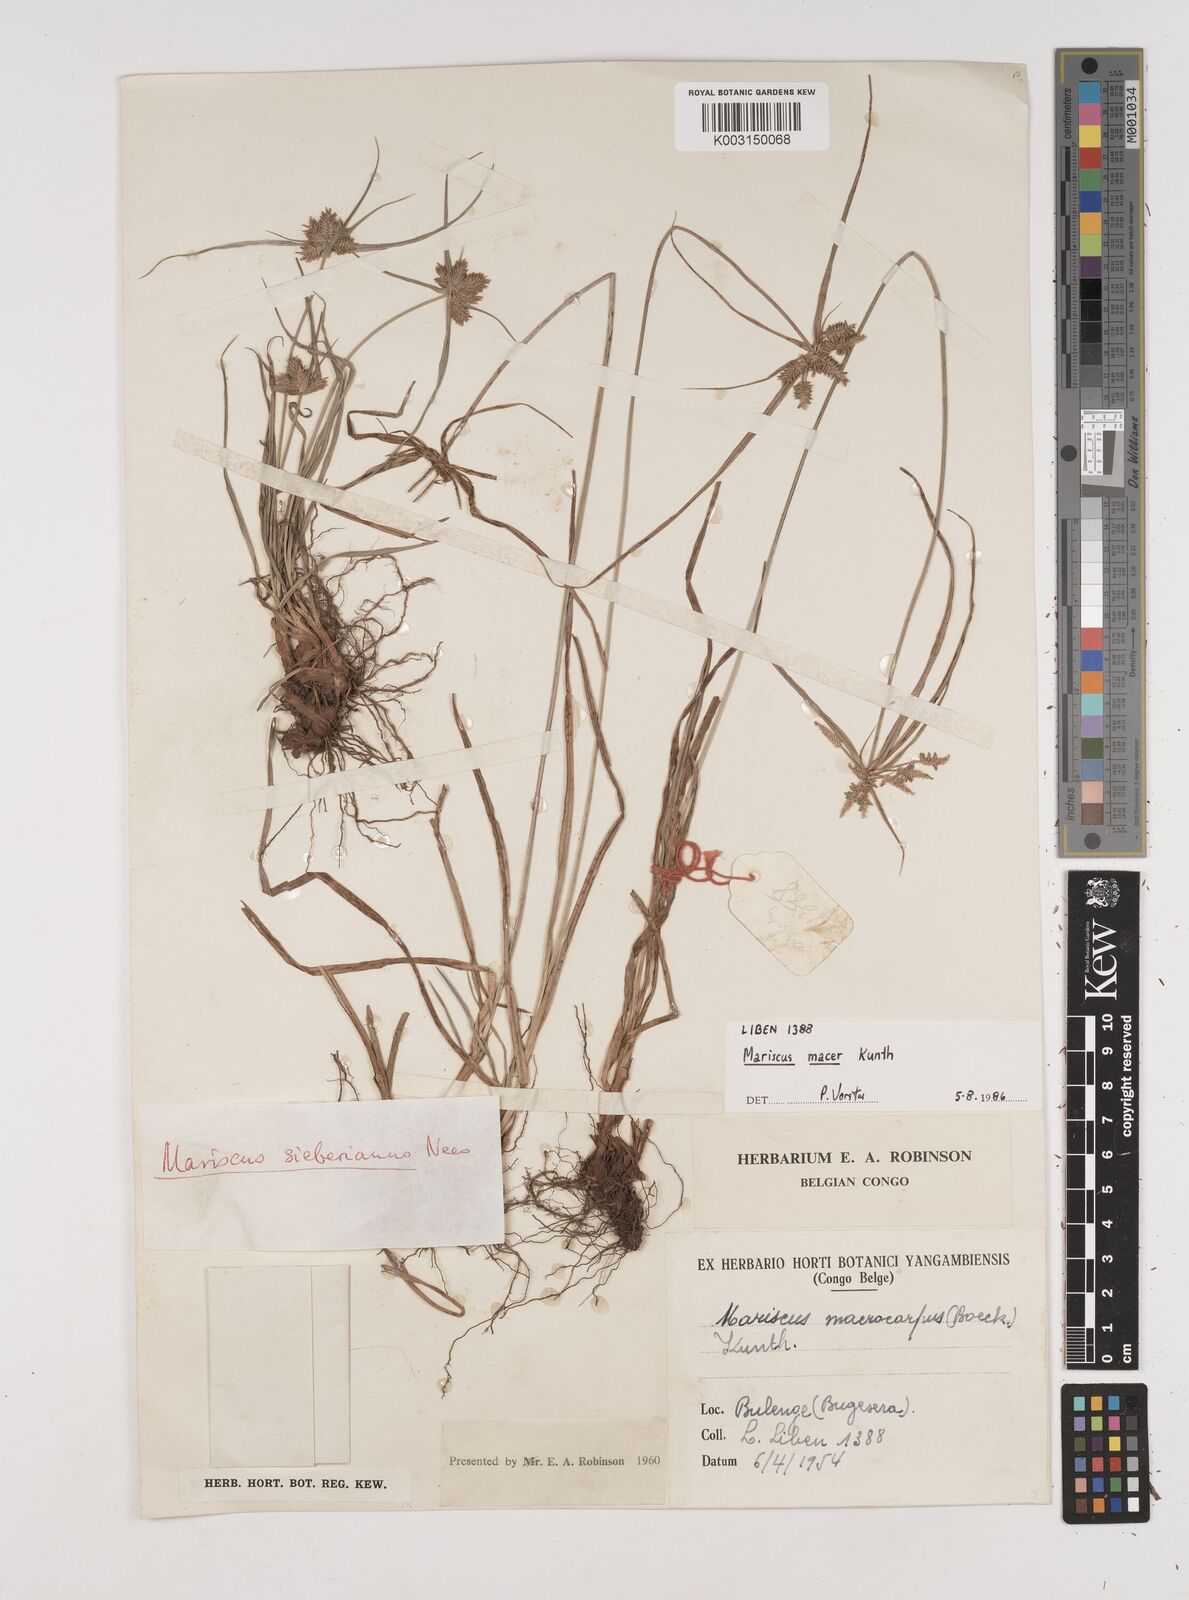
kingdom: Plantae
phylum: Tracheophyta
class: Liliopsida
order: Poales
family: Cyperaceae
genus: Cyperus
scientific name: Cyperus macrocarpus
